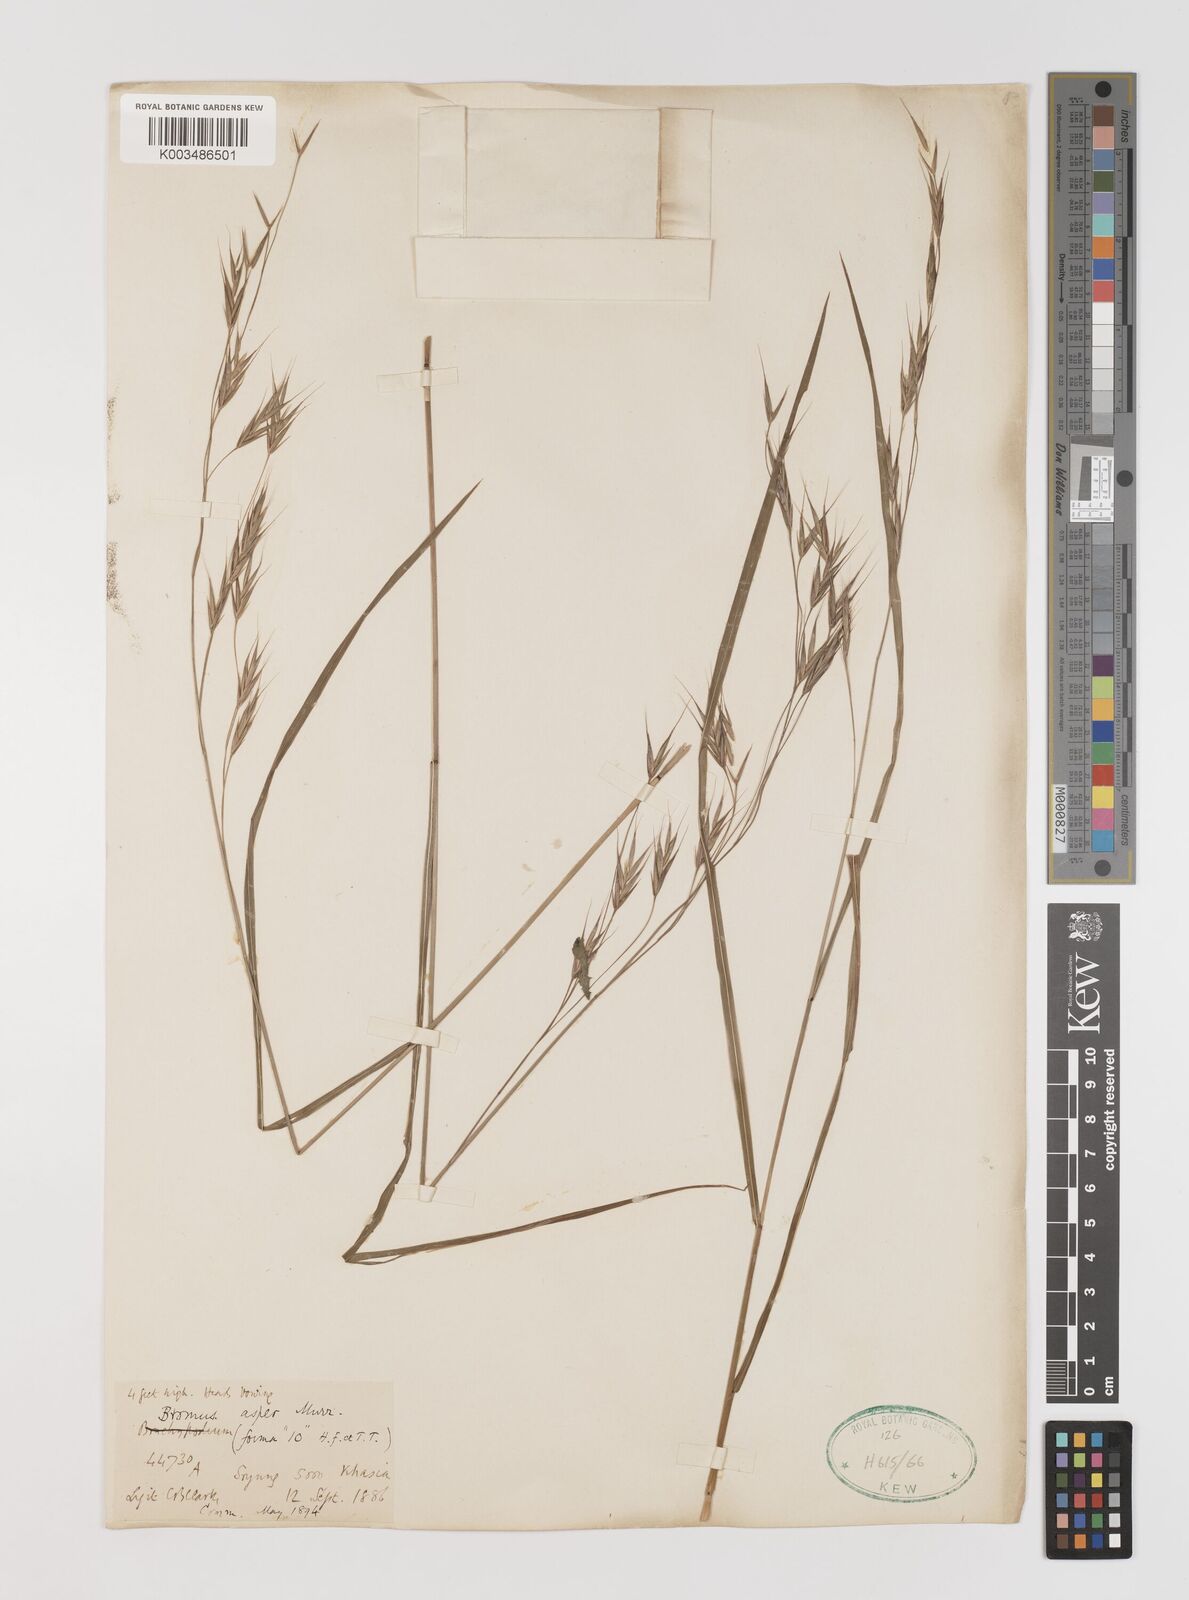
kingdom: Plantae
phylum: Tracheophyta
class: Liliopsida
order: Poales
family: Poaceae
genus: Bromus
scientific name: Bromus himalaicus
